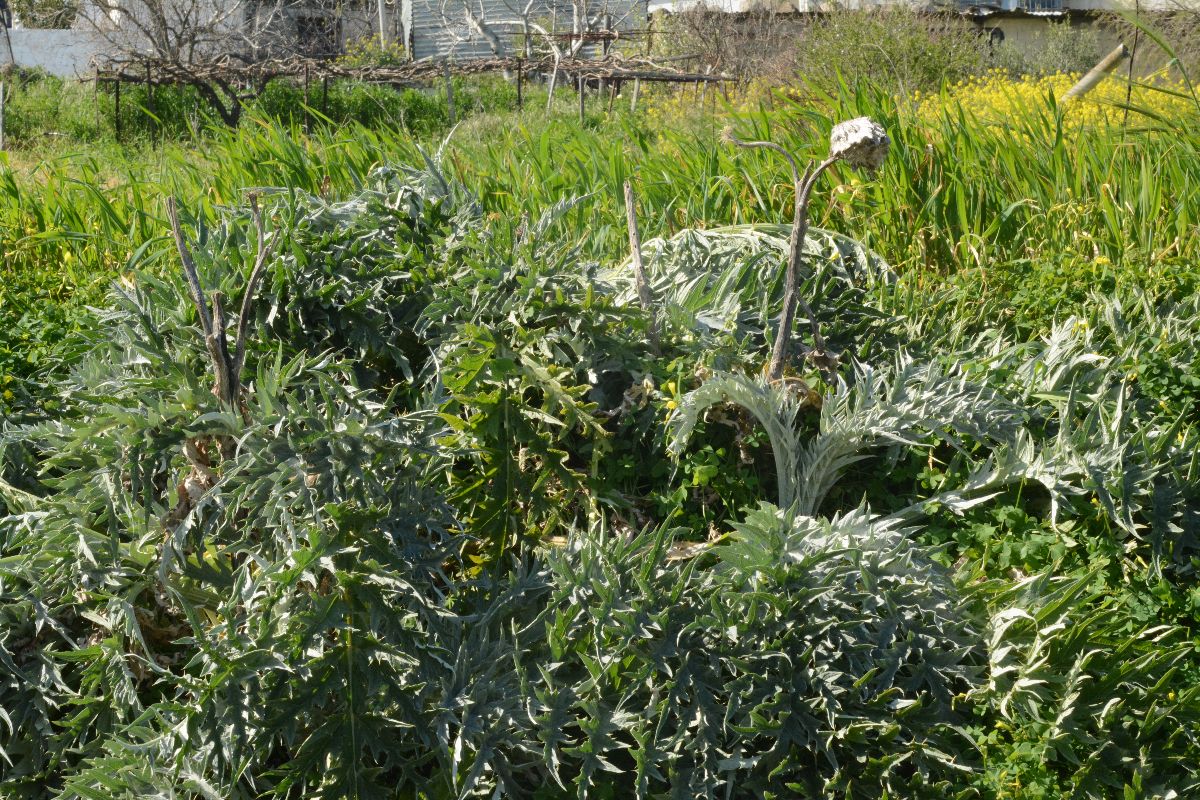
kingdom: Plantae
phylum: Tracheophyta
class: Magnoliopsida
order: Asterales
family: Asteraceae
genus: Cynara
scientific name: Cynara scolymus
